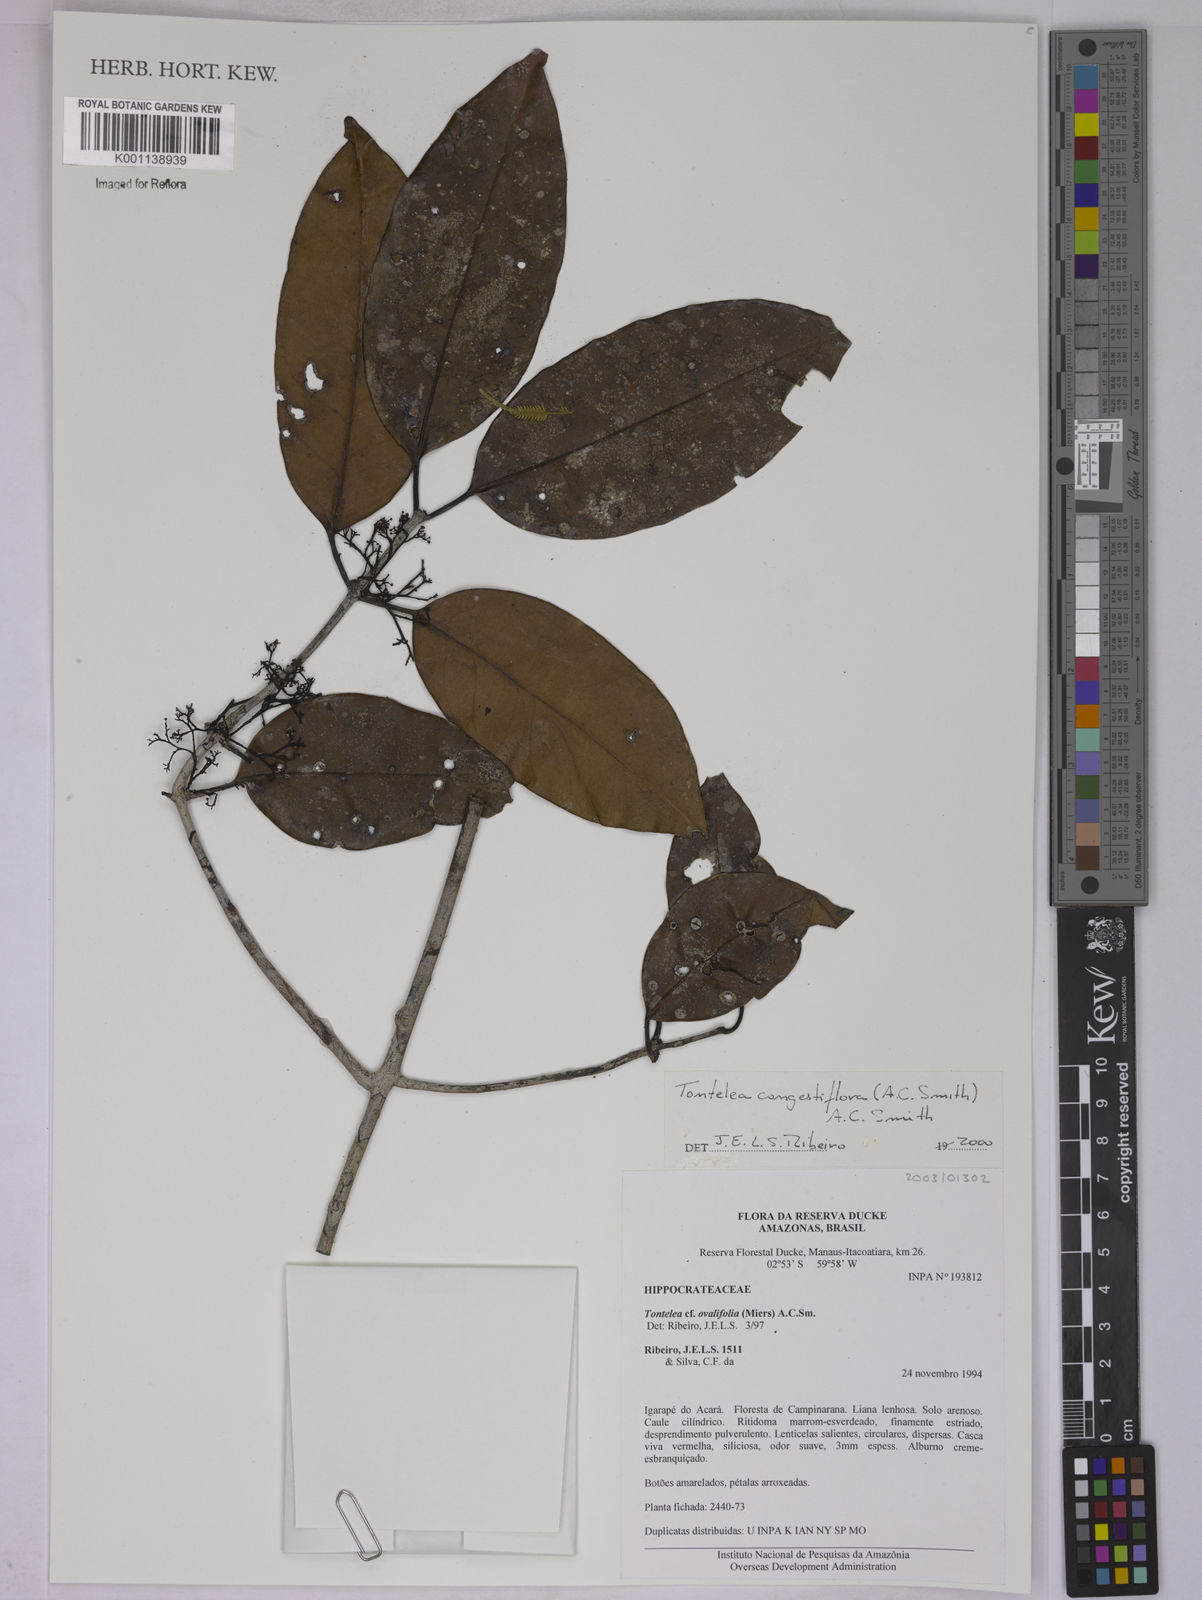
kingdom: Plantae
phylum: Tracheophyta
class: Magnoliopsida
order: Celastrales
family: Celastraceae
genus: Tontelea
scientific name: Tontelea congestiflora
